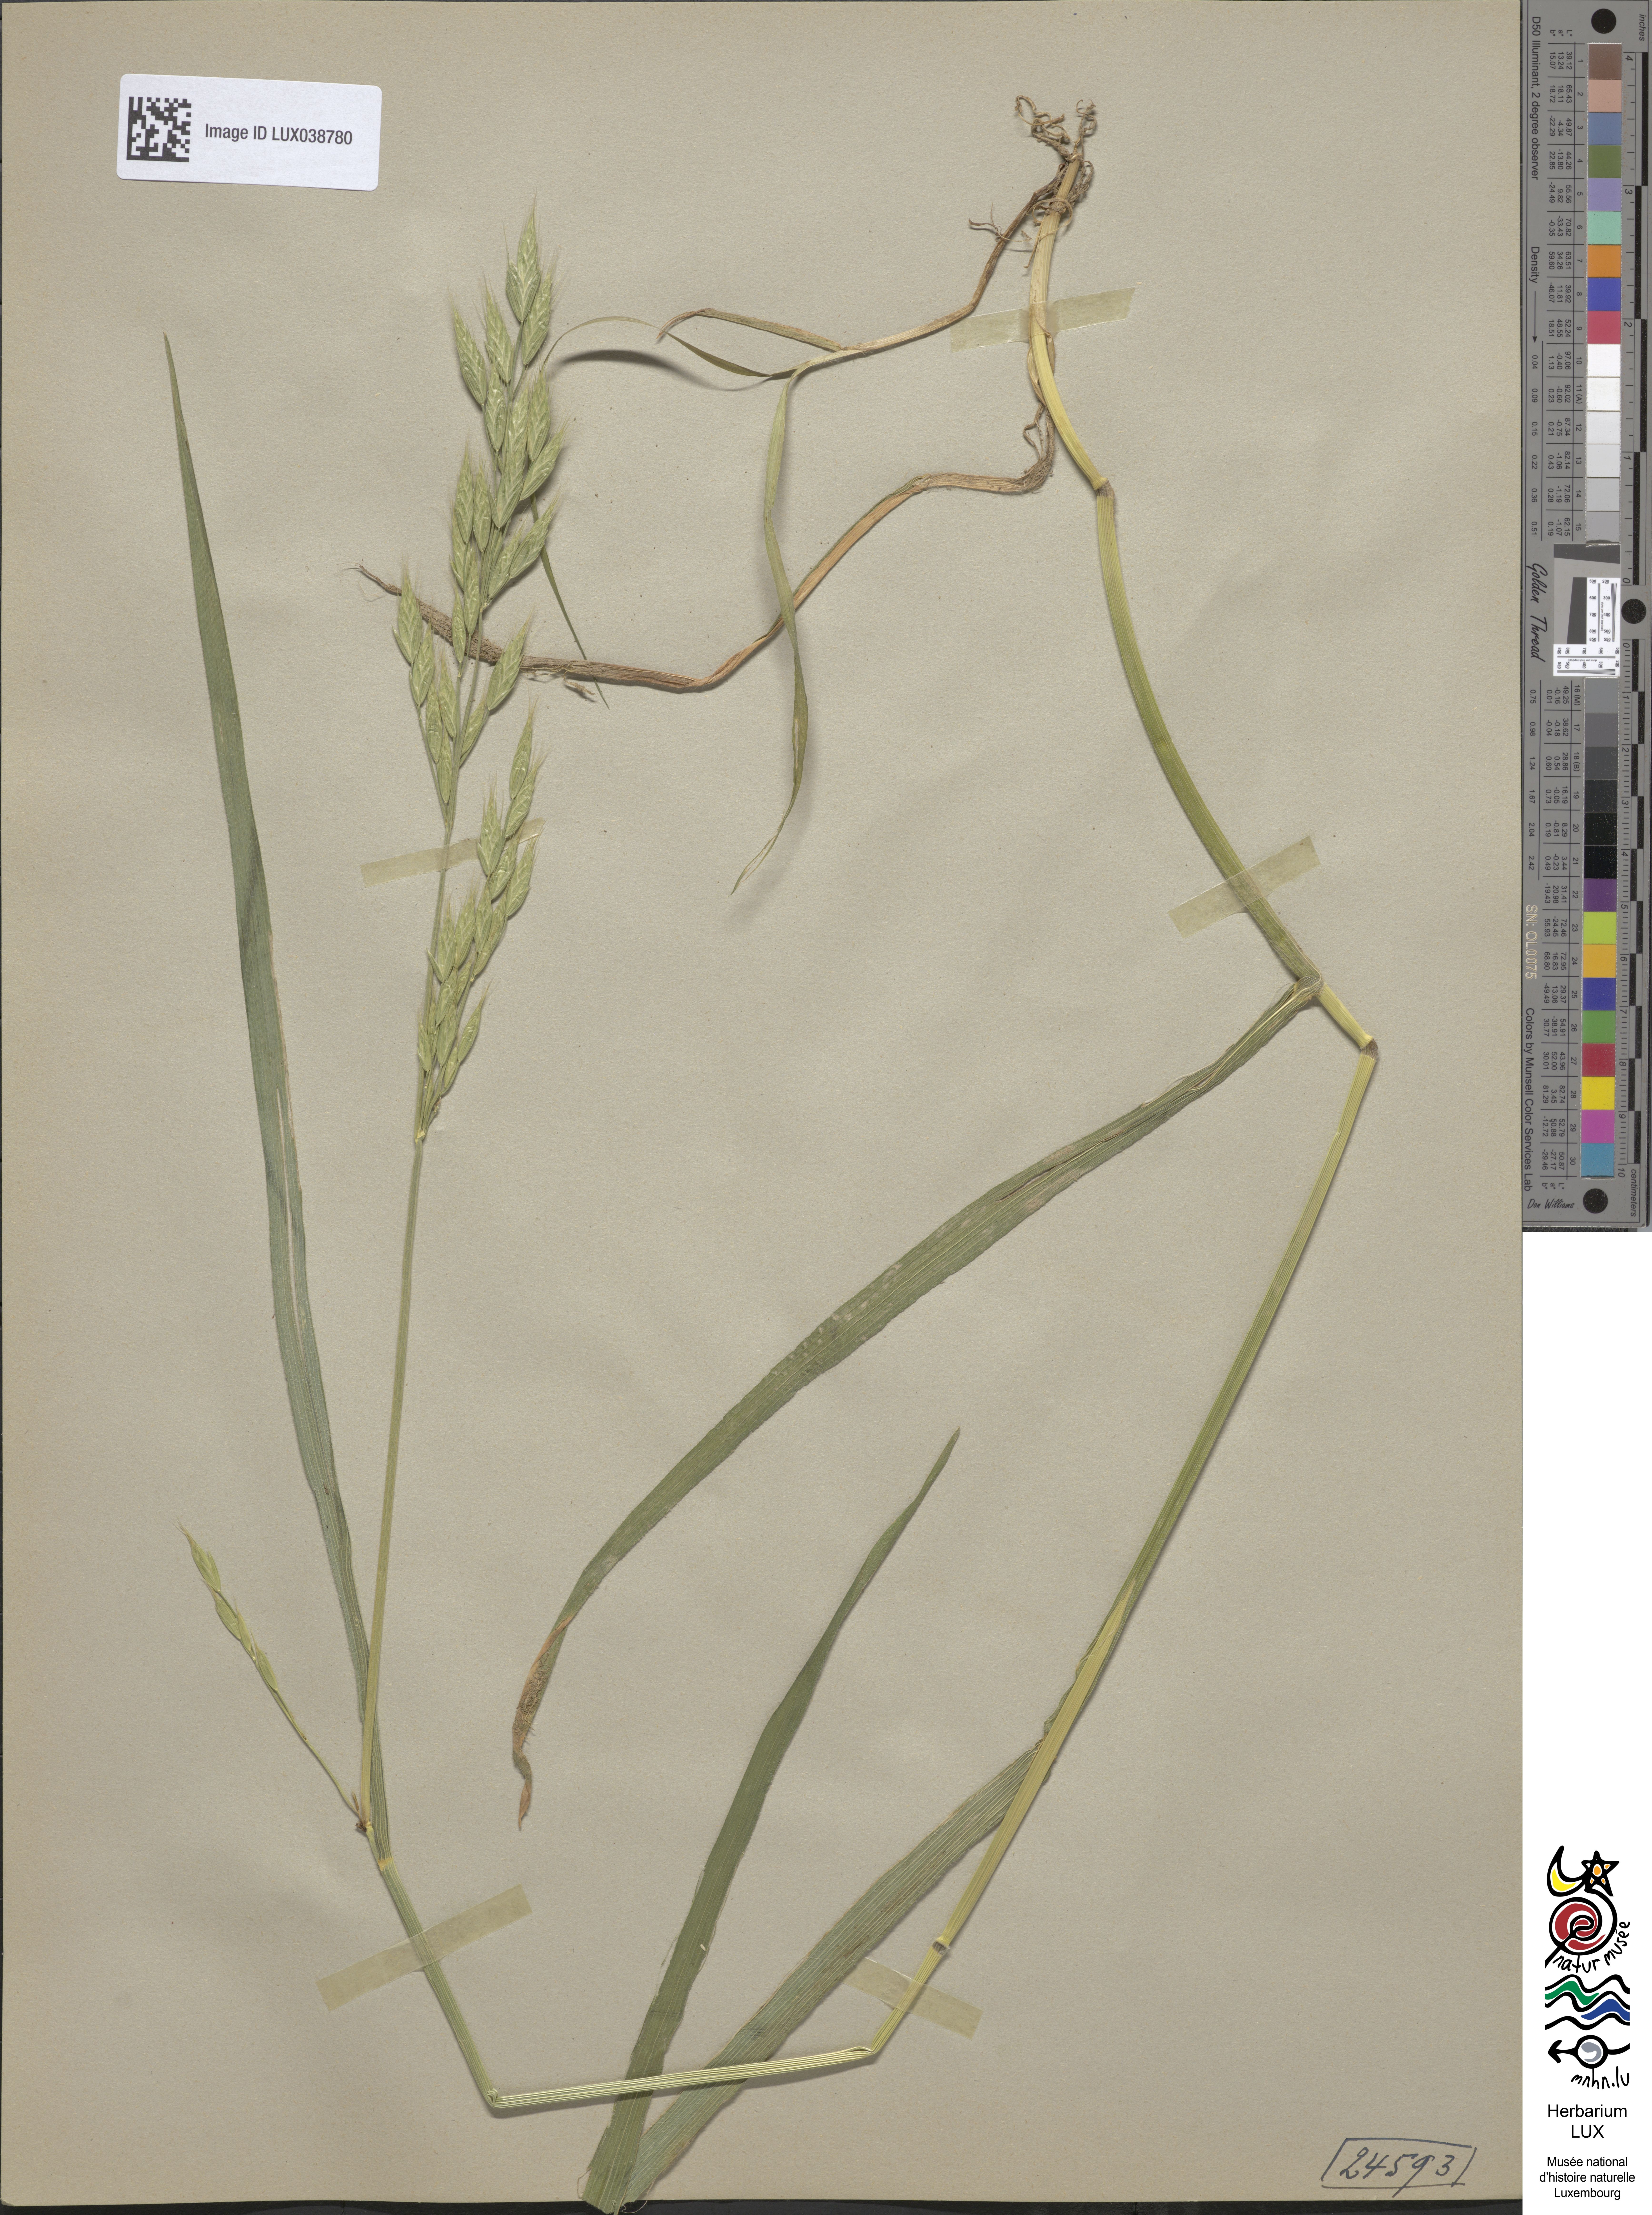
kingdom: Plantae
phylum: Tracheophyta
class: Liliopsida
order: Poales
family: Poaceae
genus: Bromus
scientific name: Bromus hordeaceus
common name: Soft brome
